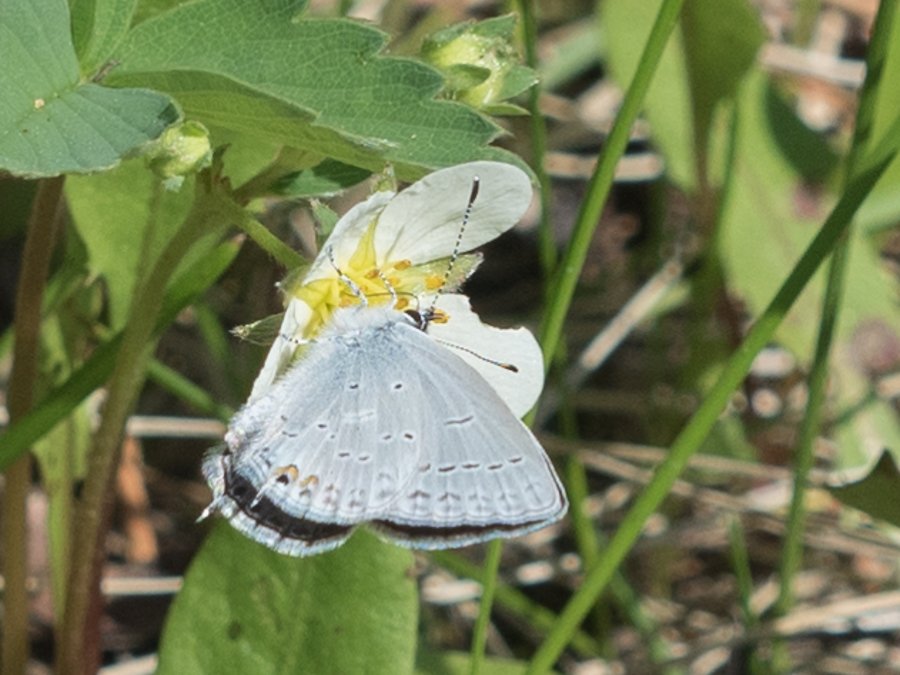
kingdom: Animalia
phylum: Arthropoda
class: Insecta
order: Lepidoptera
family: Lycaenidae
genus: Elkalyce
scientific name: Elkalyce amyntula
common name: Western Tailed-Blue
